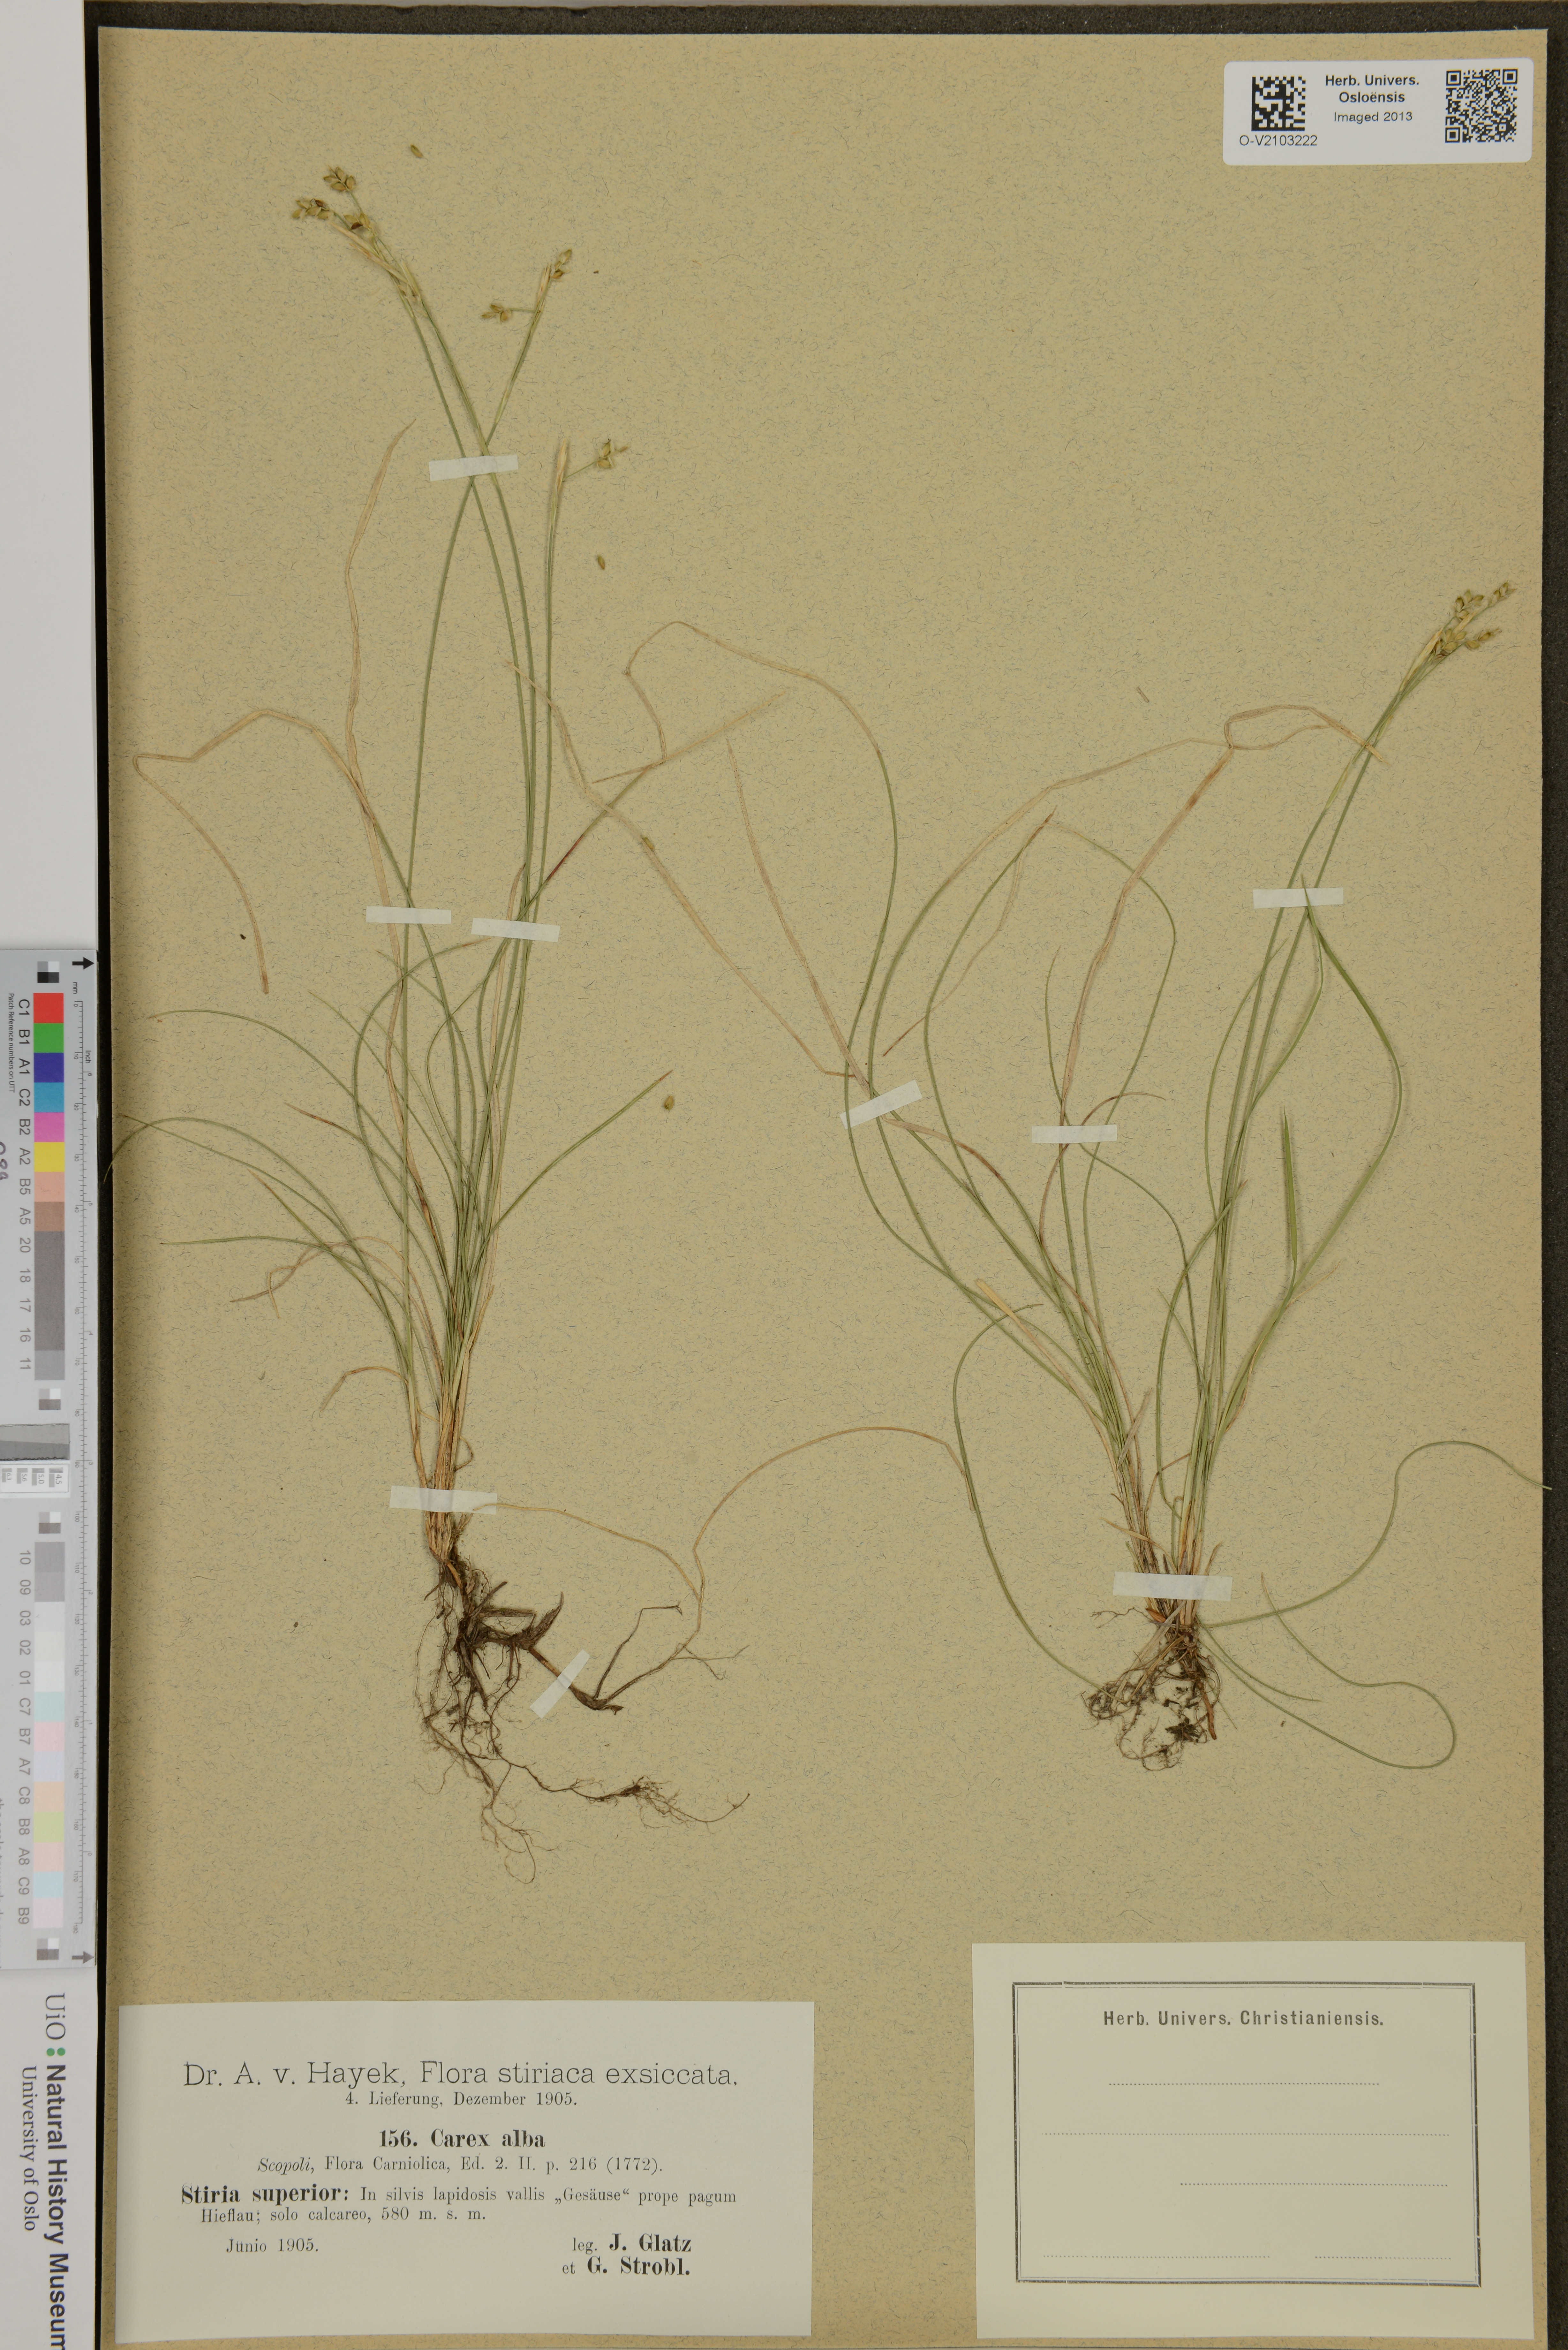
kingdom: Plantae
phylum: Tracheophyta
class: Liliopsida
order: Poales
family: Cyperaceae
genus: Carex
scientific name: Carex alba
